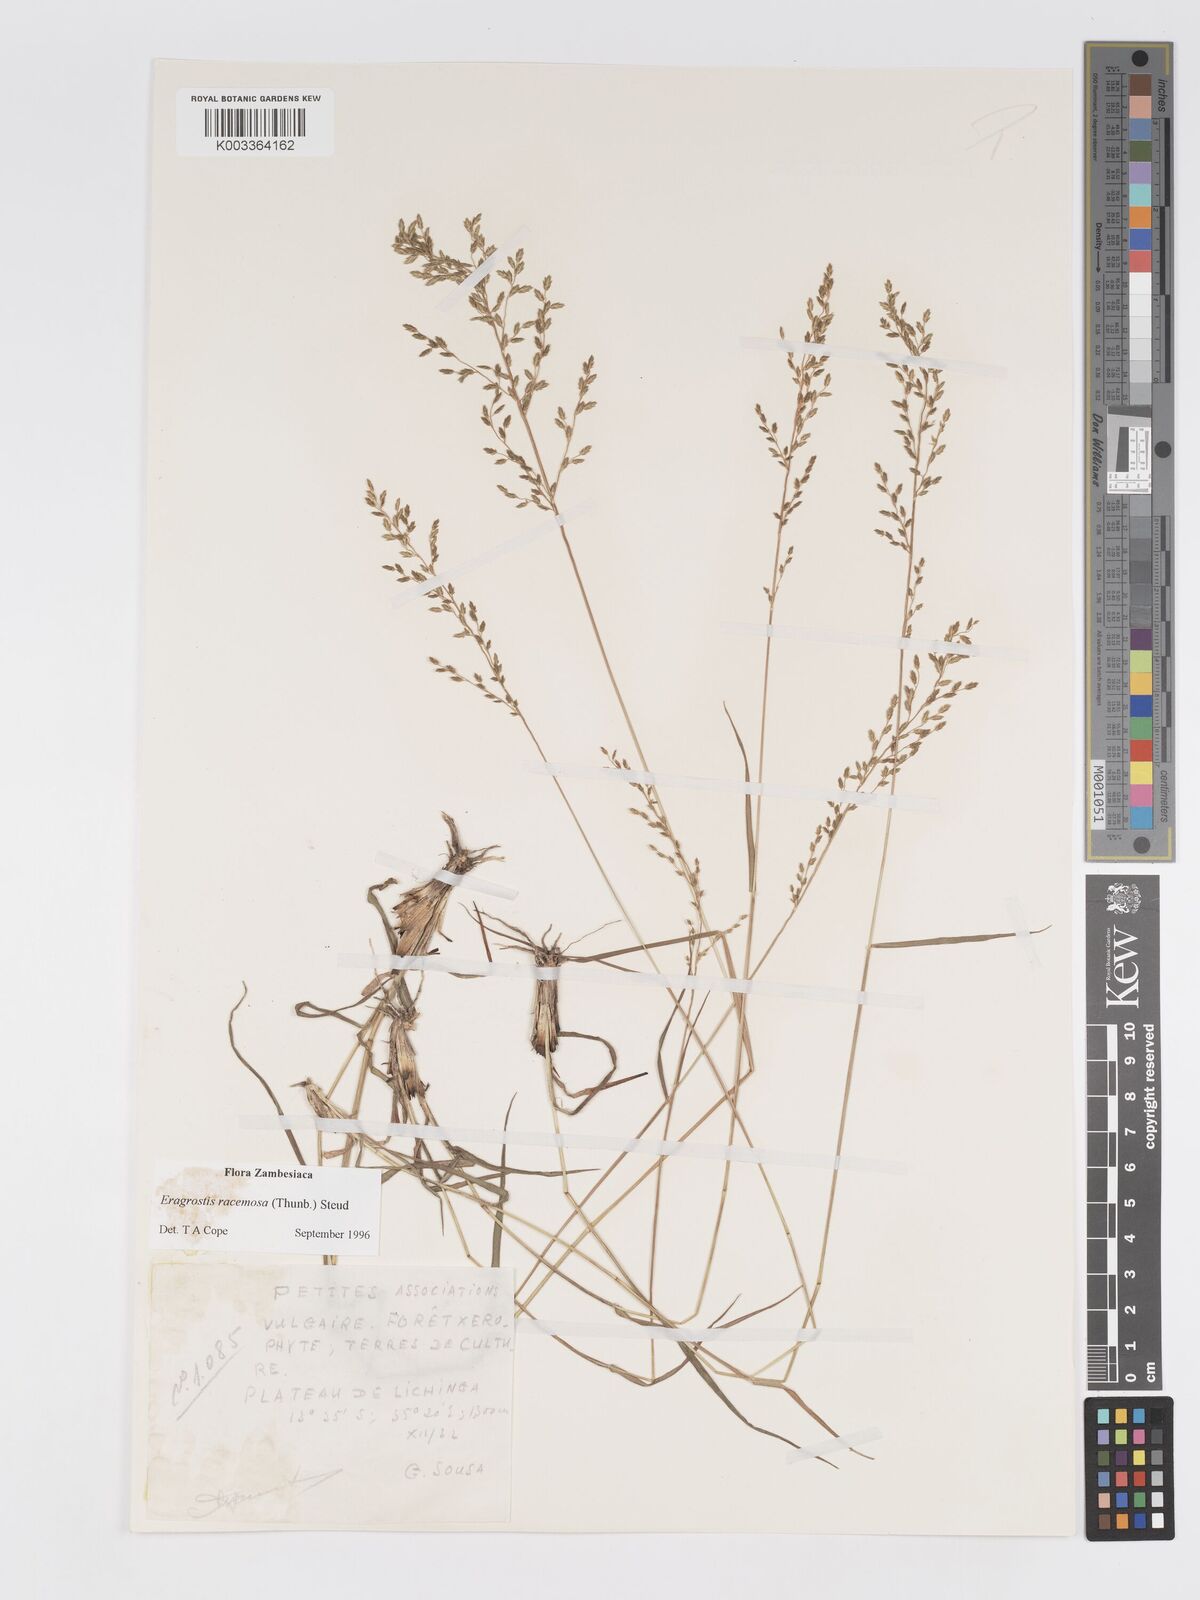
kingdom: Plantae
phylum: Tracheophyta
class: Liliopsida
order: Poales
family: Poaceae
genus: Eragrostis
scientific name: Eragrostis racemosa
